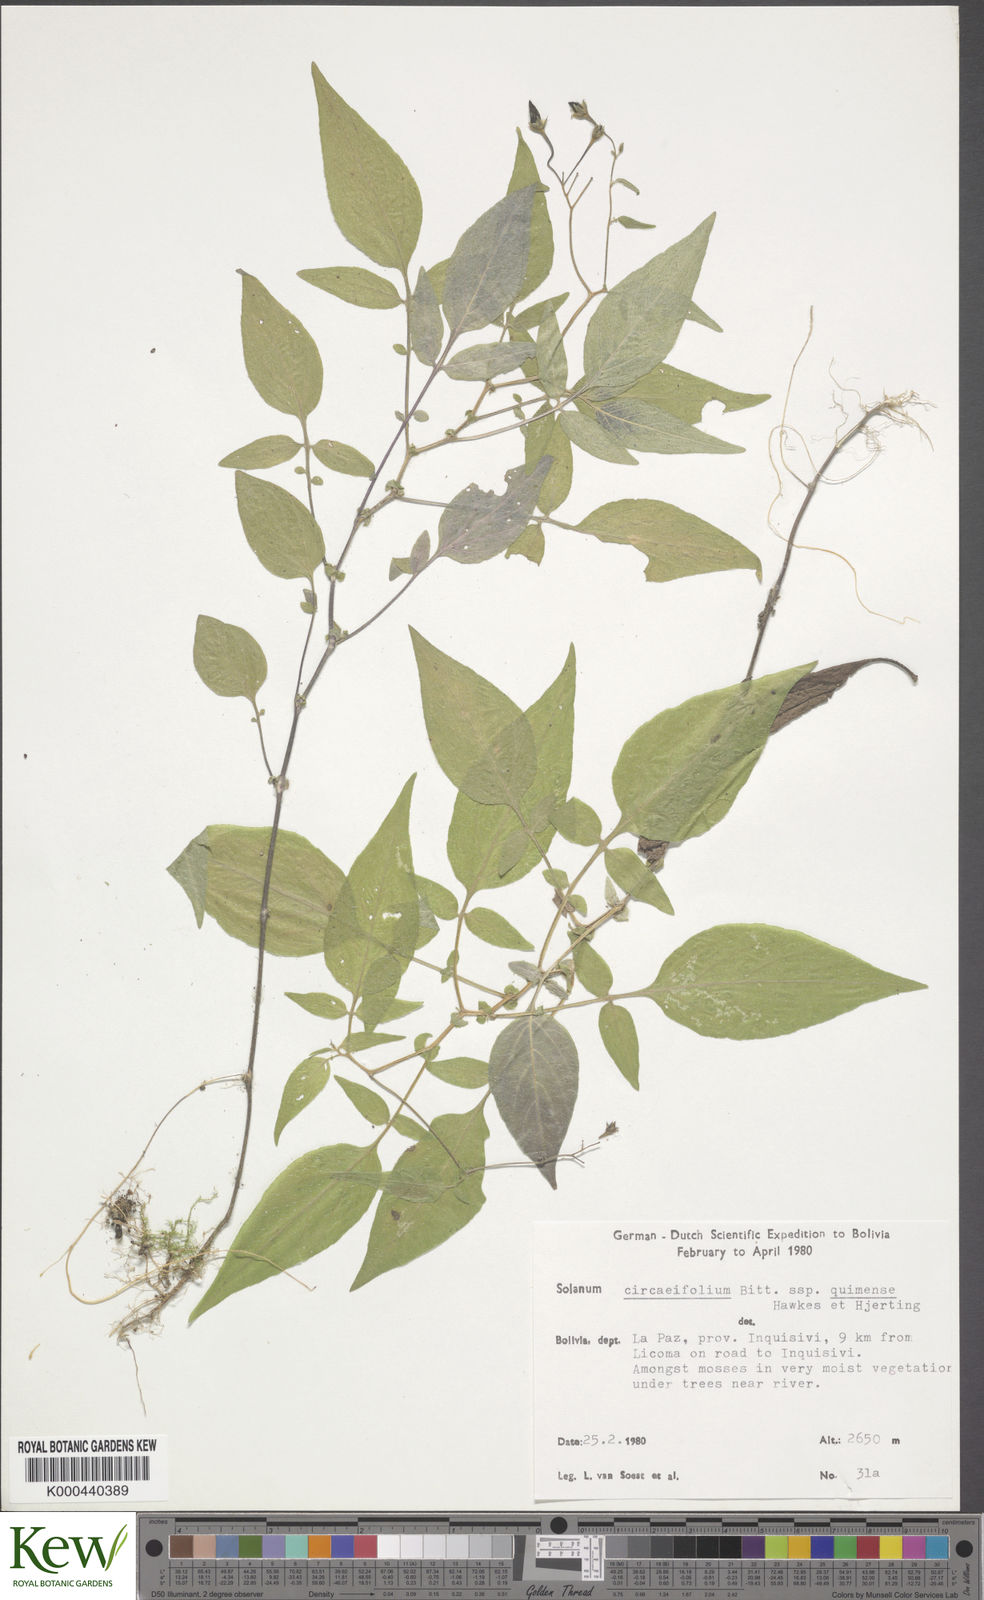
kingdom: Plantae
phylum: Tracheophyta
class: Magnoliopsida
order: Solanales
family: Solanaceae
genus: Solanum
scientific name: Solanum stipuloideum
